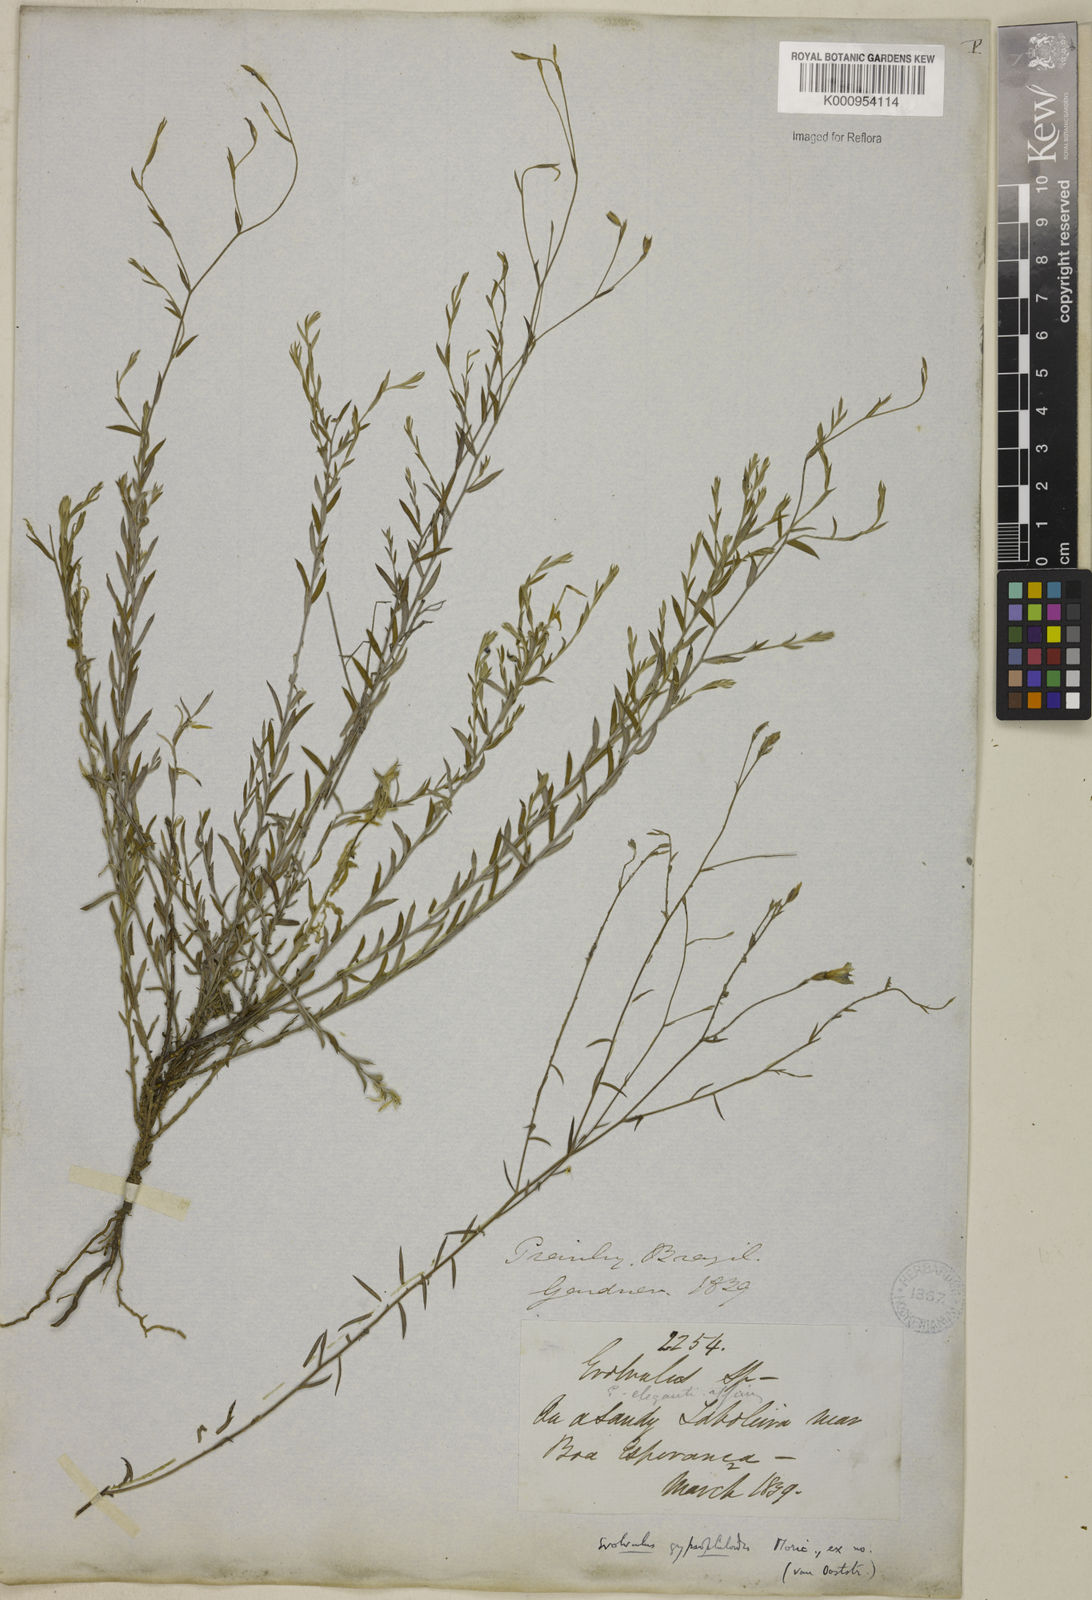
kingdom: Plantae
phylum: Tracheophyta
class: Magnoliopsida
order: Solanales
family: Convolvulaceae
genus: Evolvulus
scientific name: Evolvulus gypsophiloides
